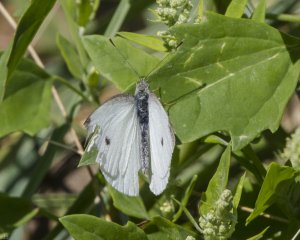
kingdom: Animalia
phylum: Arthropoda
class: Insecta
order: Lepidoptera
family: Pieridae
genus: Pieris
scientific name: Pieris rapae
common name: Cabbage White
